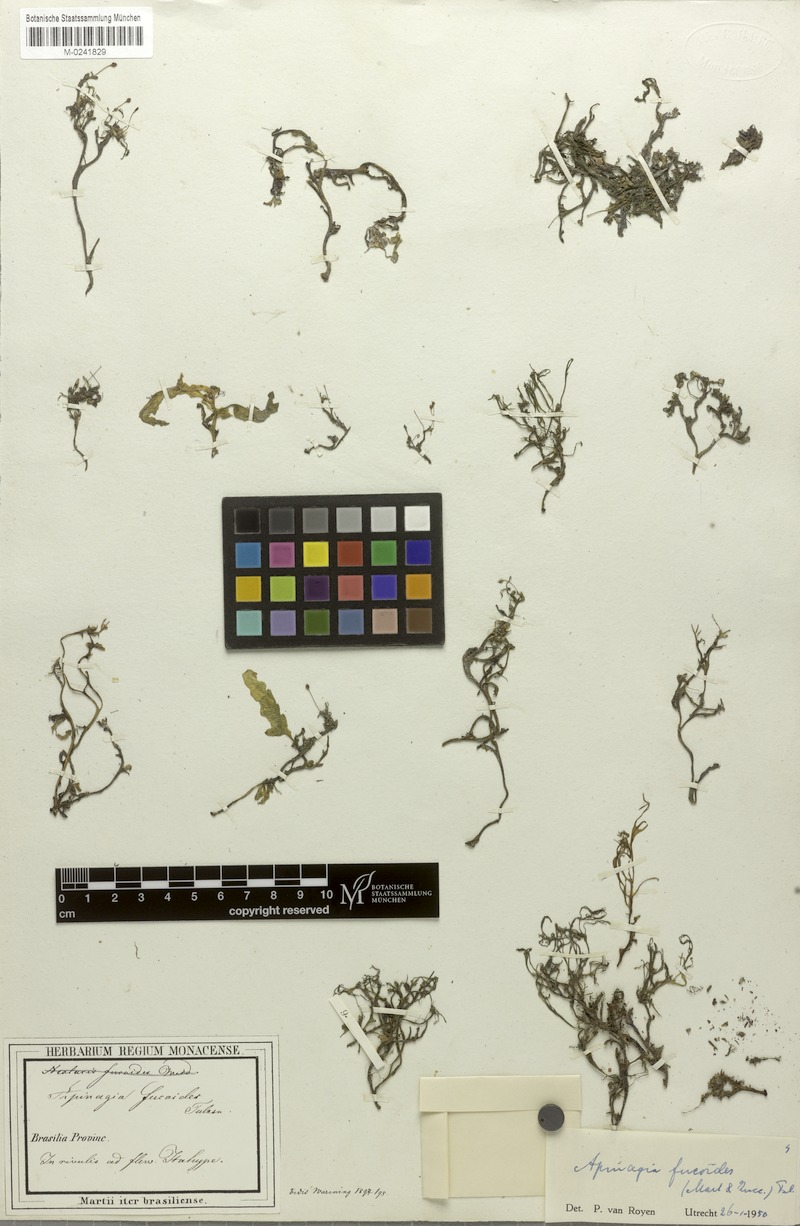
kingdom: Plantae
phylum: Tracheophyta
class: Magnoliopsida
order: Malpighiales
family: Podostemaceae
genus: Apinagia
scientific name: Apinagia fucoides
